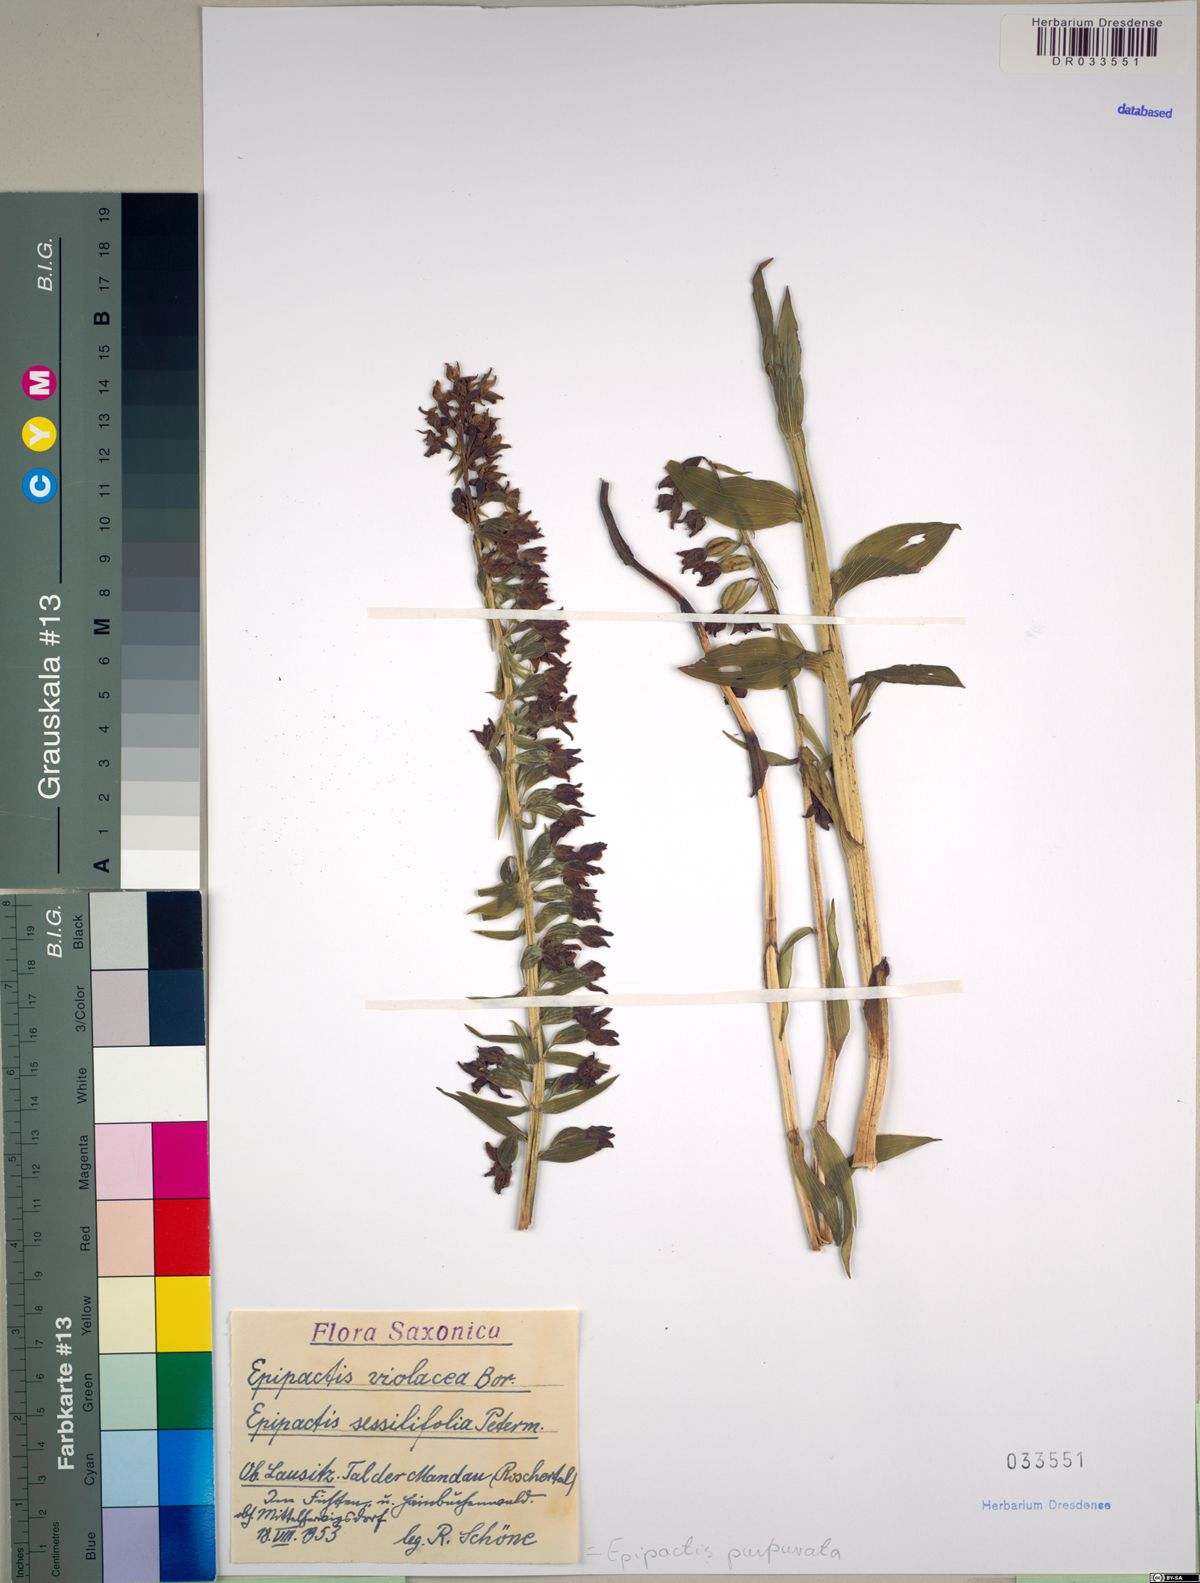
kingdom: Plantae
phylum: Tracheophyta
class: Liliopsida
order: Asparagales
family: Orchidaceae
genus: Epipactis
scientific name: Epipactis purpurata
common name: Violet helleborine
